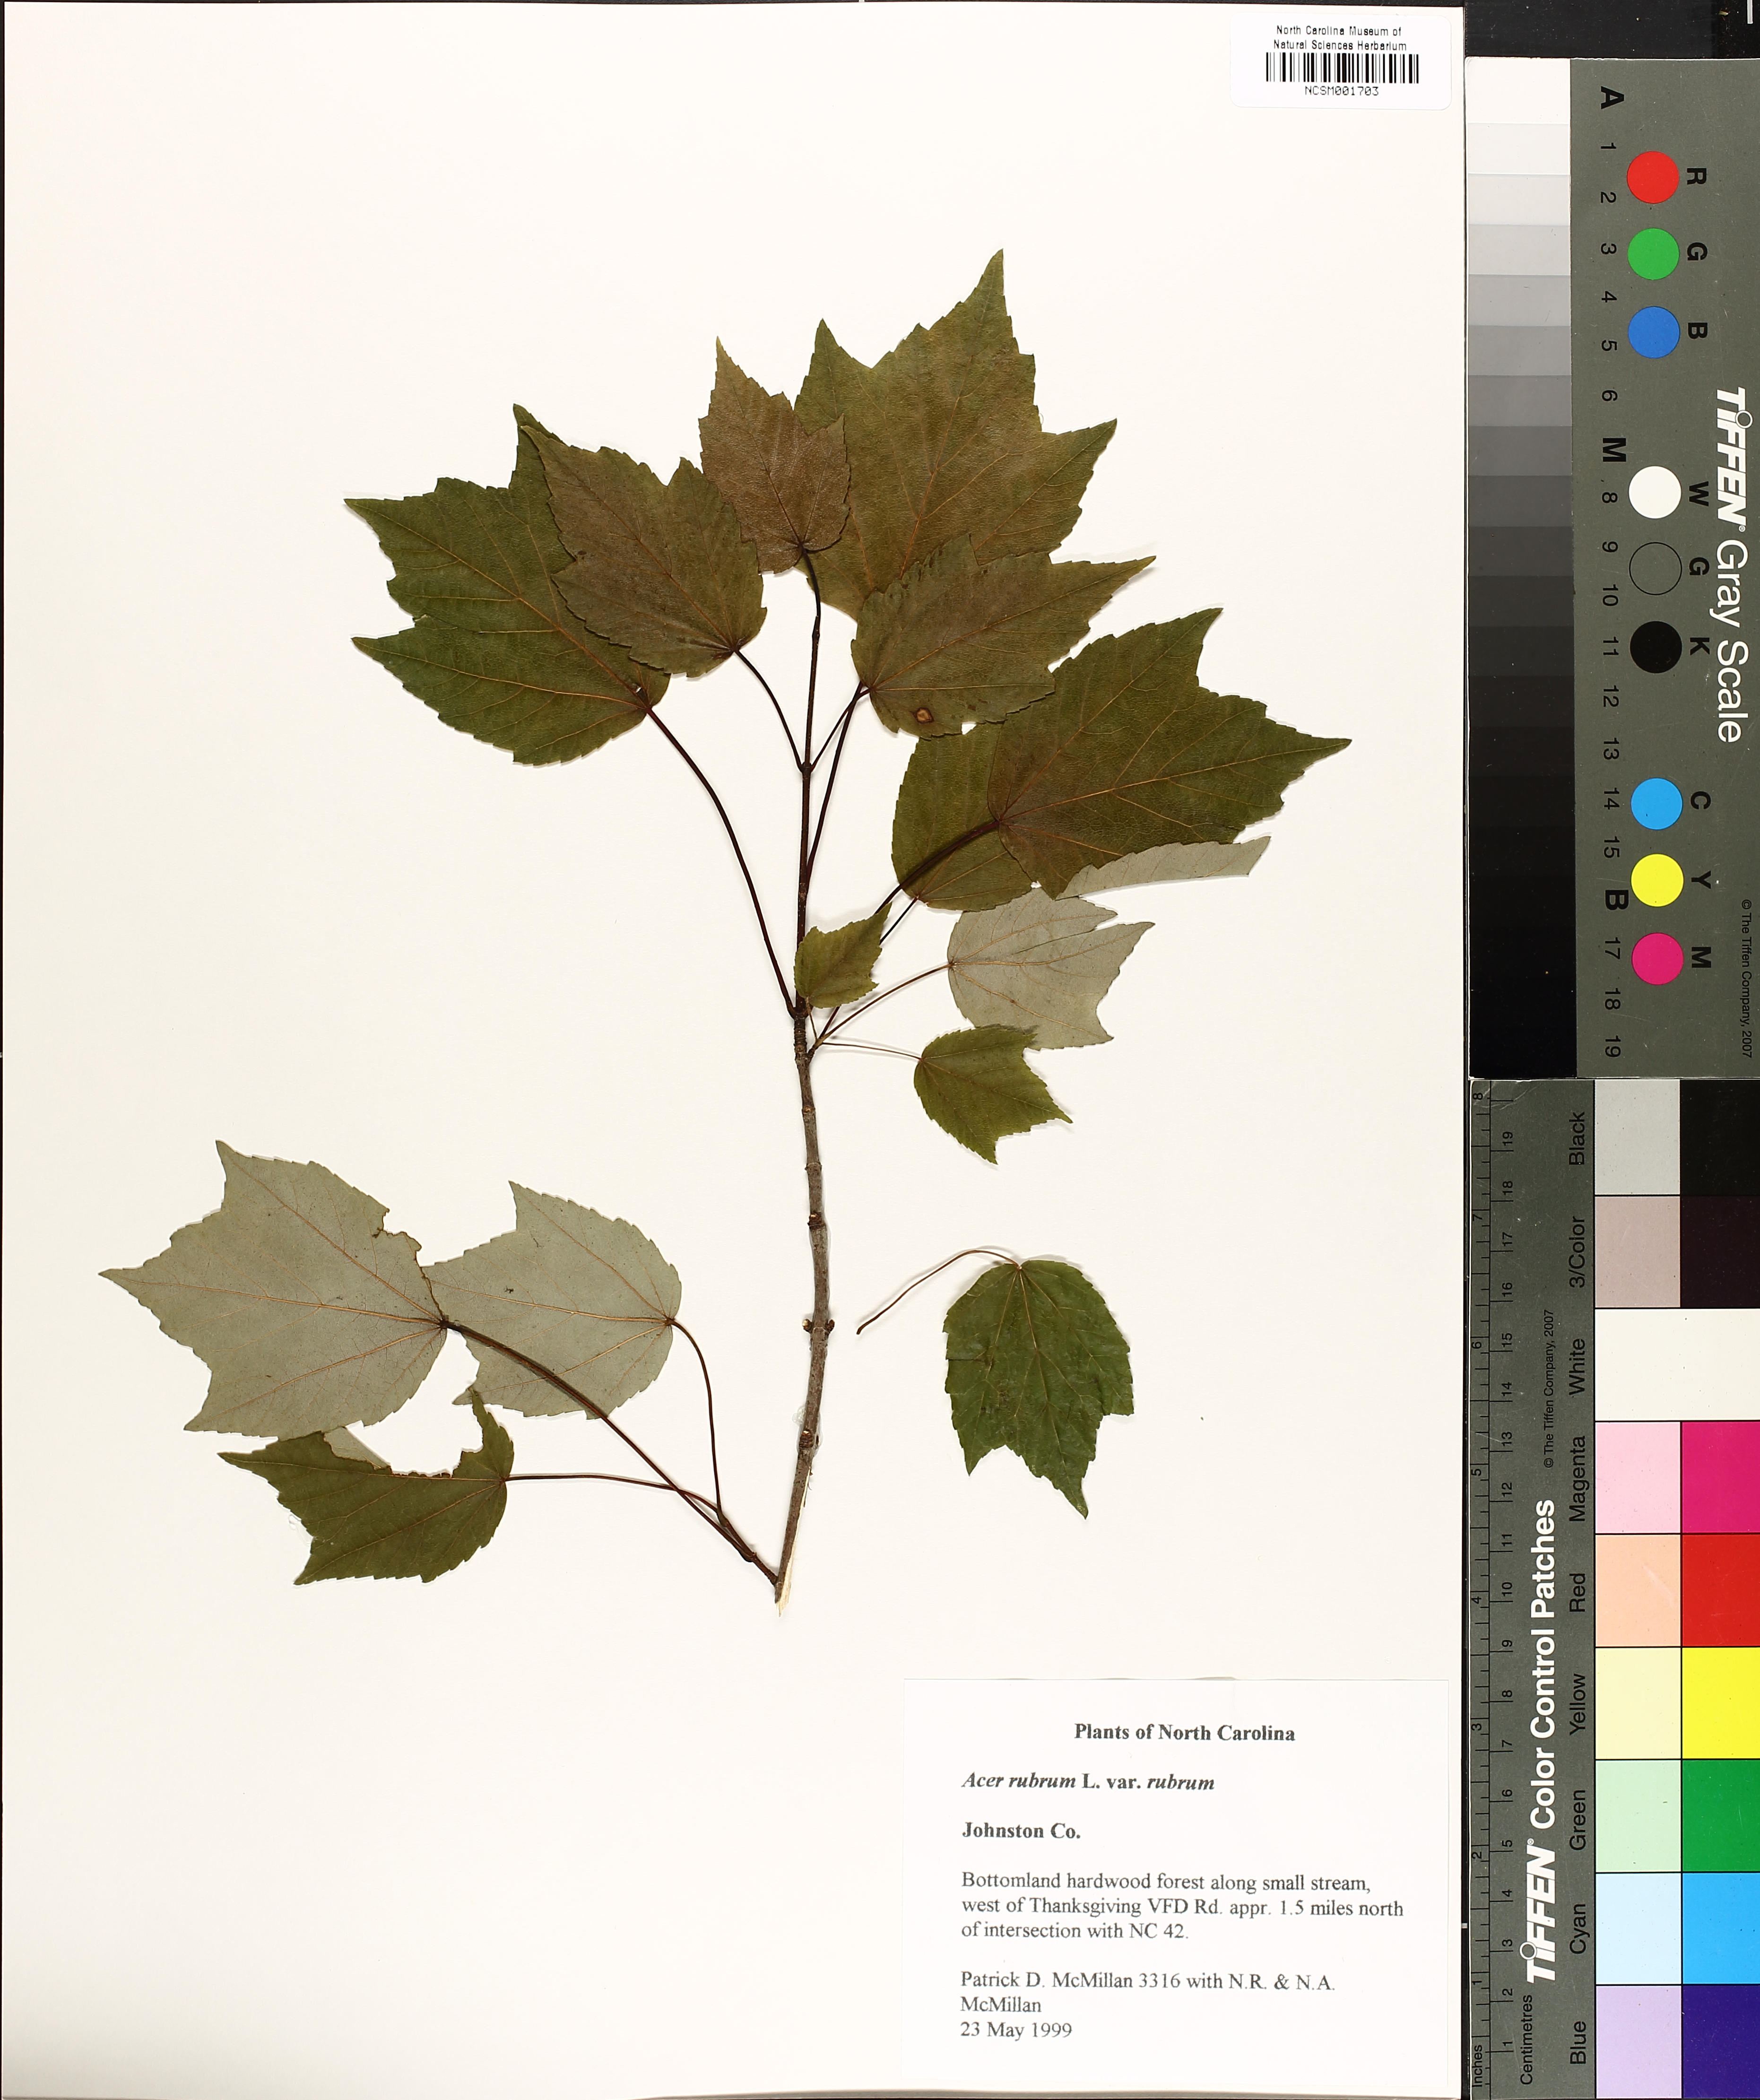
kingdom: Plantae
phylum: Tracheophyta
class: Magnoliopsida
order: Sapindales
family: Sapindaceae
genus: Acer
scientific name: Acer rubrum
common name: Red maple
